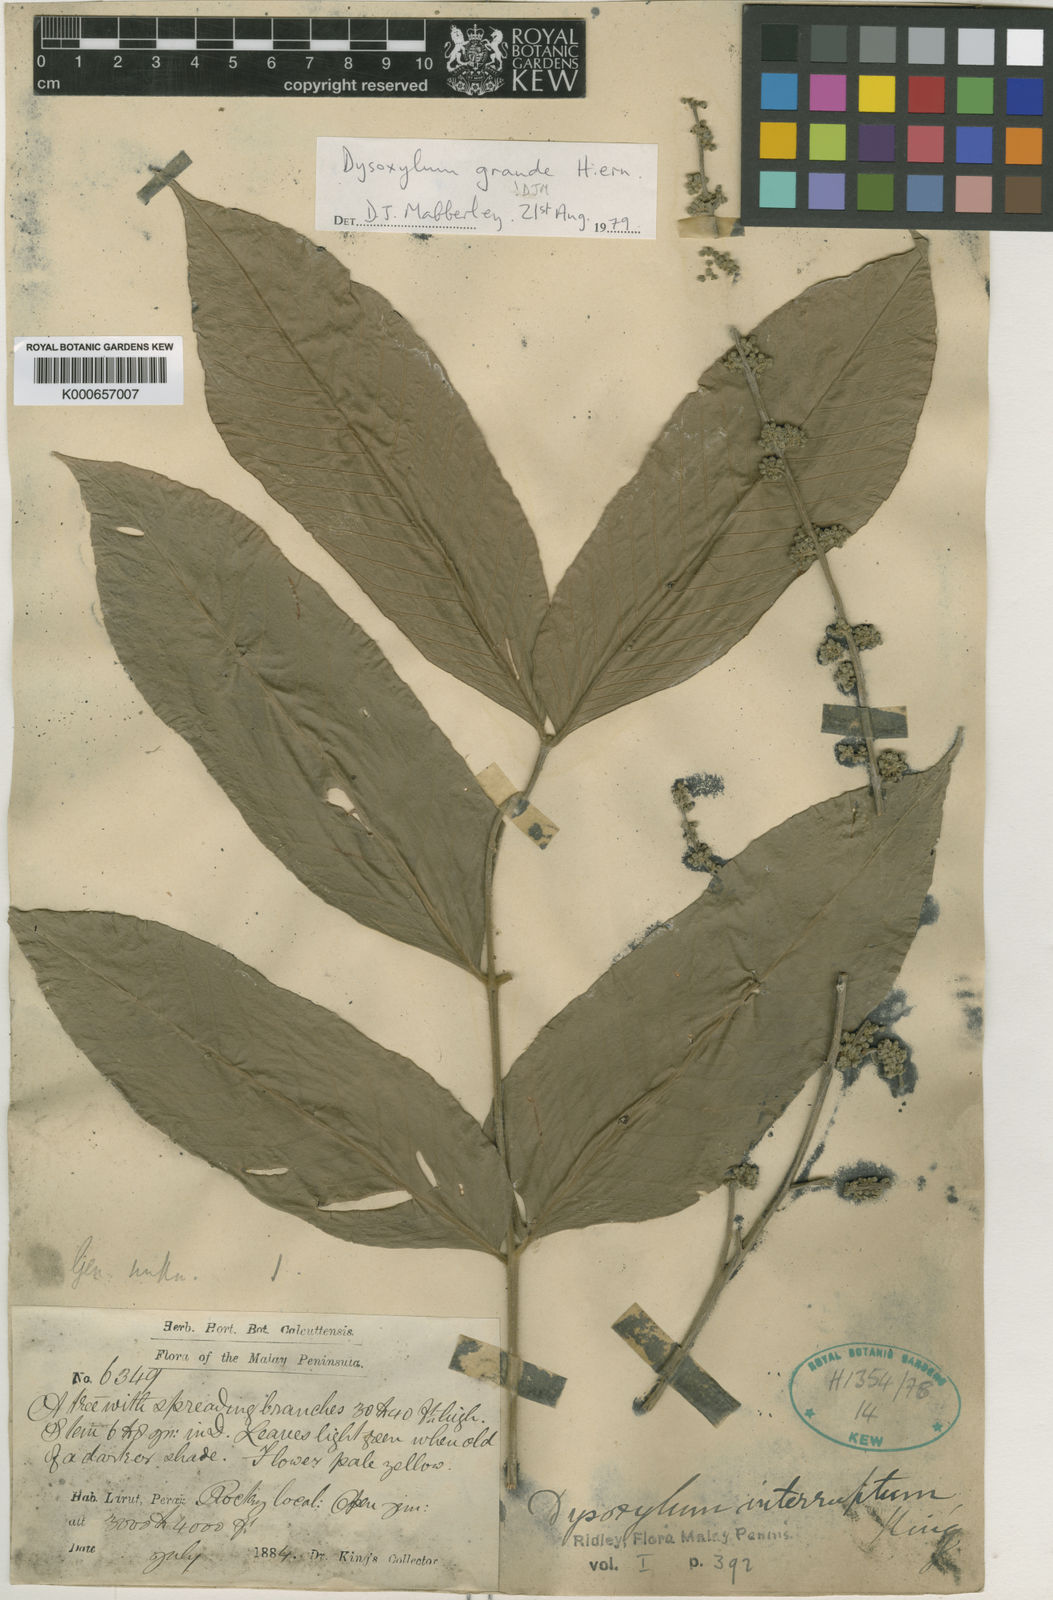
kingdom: Plantae
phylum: Tracheophyta
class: Magnoliopsida
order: Sapindales
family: Meliaceae
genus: Dysoxylum
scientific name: Dysoxylum grande
